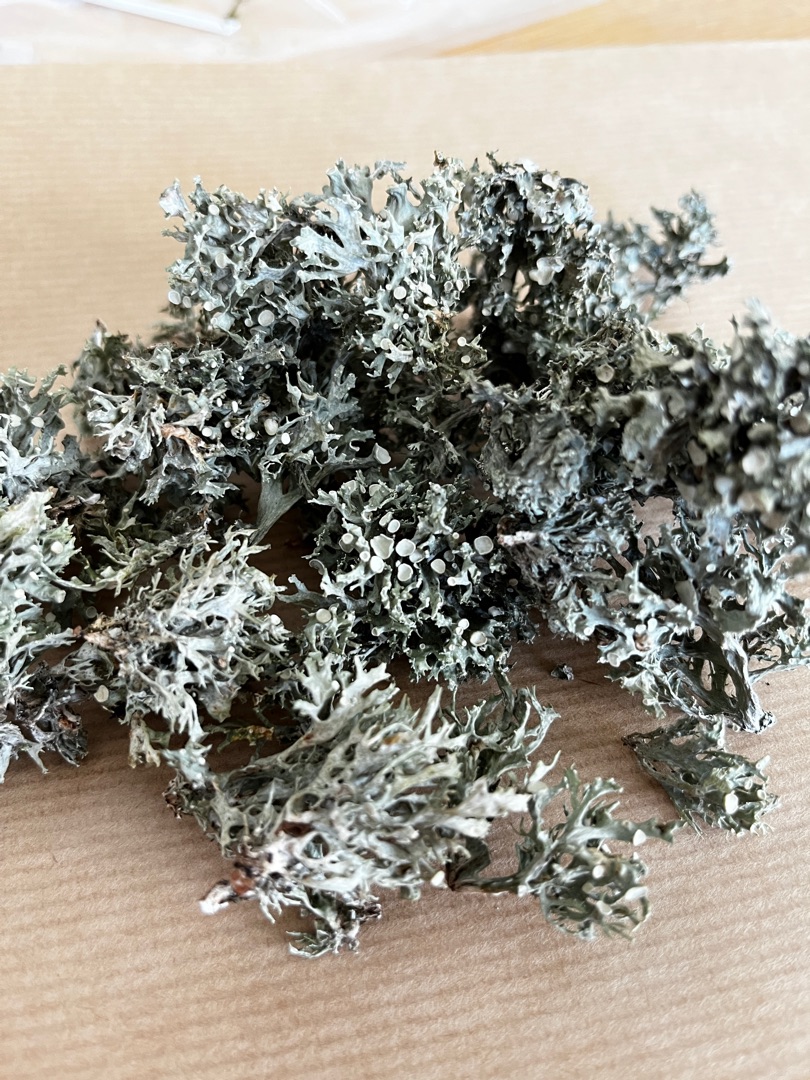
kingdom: Fungi
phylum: Ascomycota
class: Lecanoromycetes
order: Lecanorales
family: Ramalinaceae
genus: Ramalina
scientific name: Ramalina fastigiata
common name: Tue-grenlav
